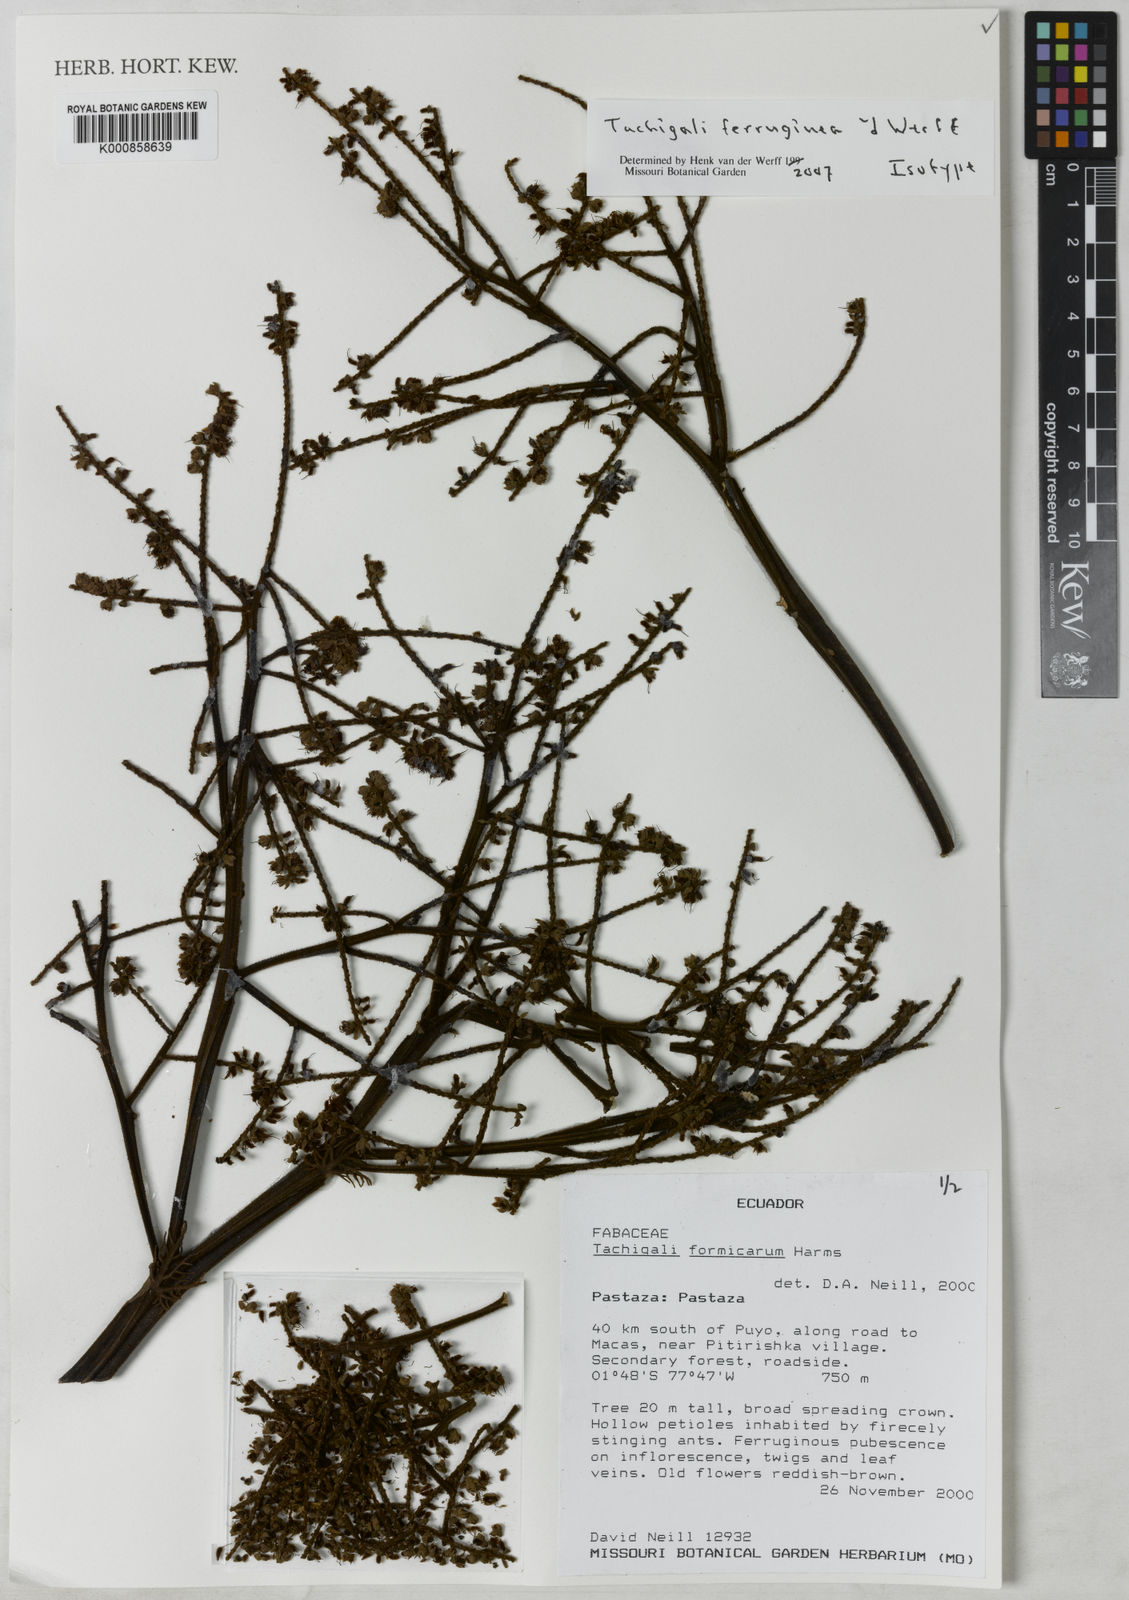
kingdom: Plantae
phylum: Tracheophyta
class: Magnoliopsida
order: Fabales
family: Fabaceae
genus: Tachigali
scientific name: Tachigali ferruginea
